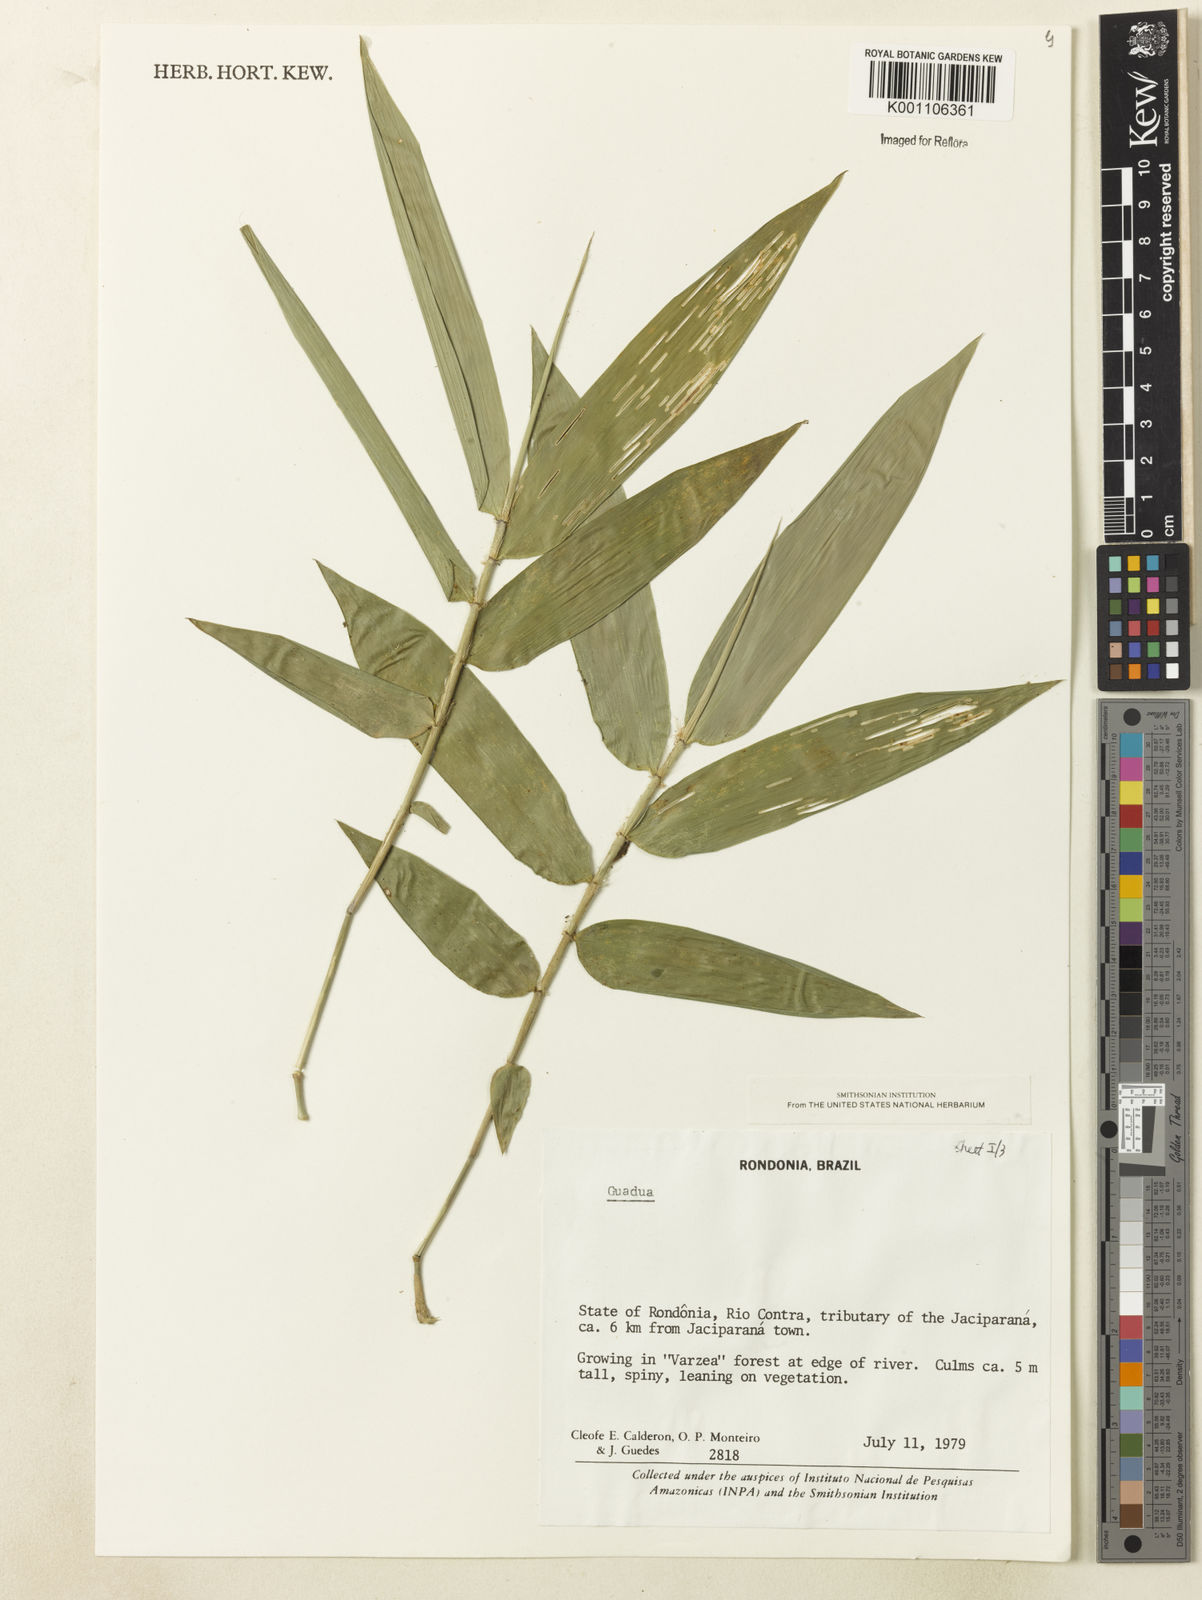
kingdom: Plantae
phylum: Tracheophyta
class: Liliopsida
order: Poales
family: Poaceae
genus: Guadua
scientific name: Guadua
